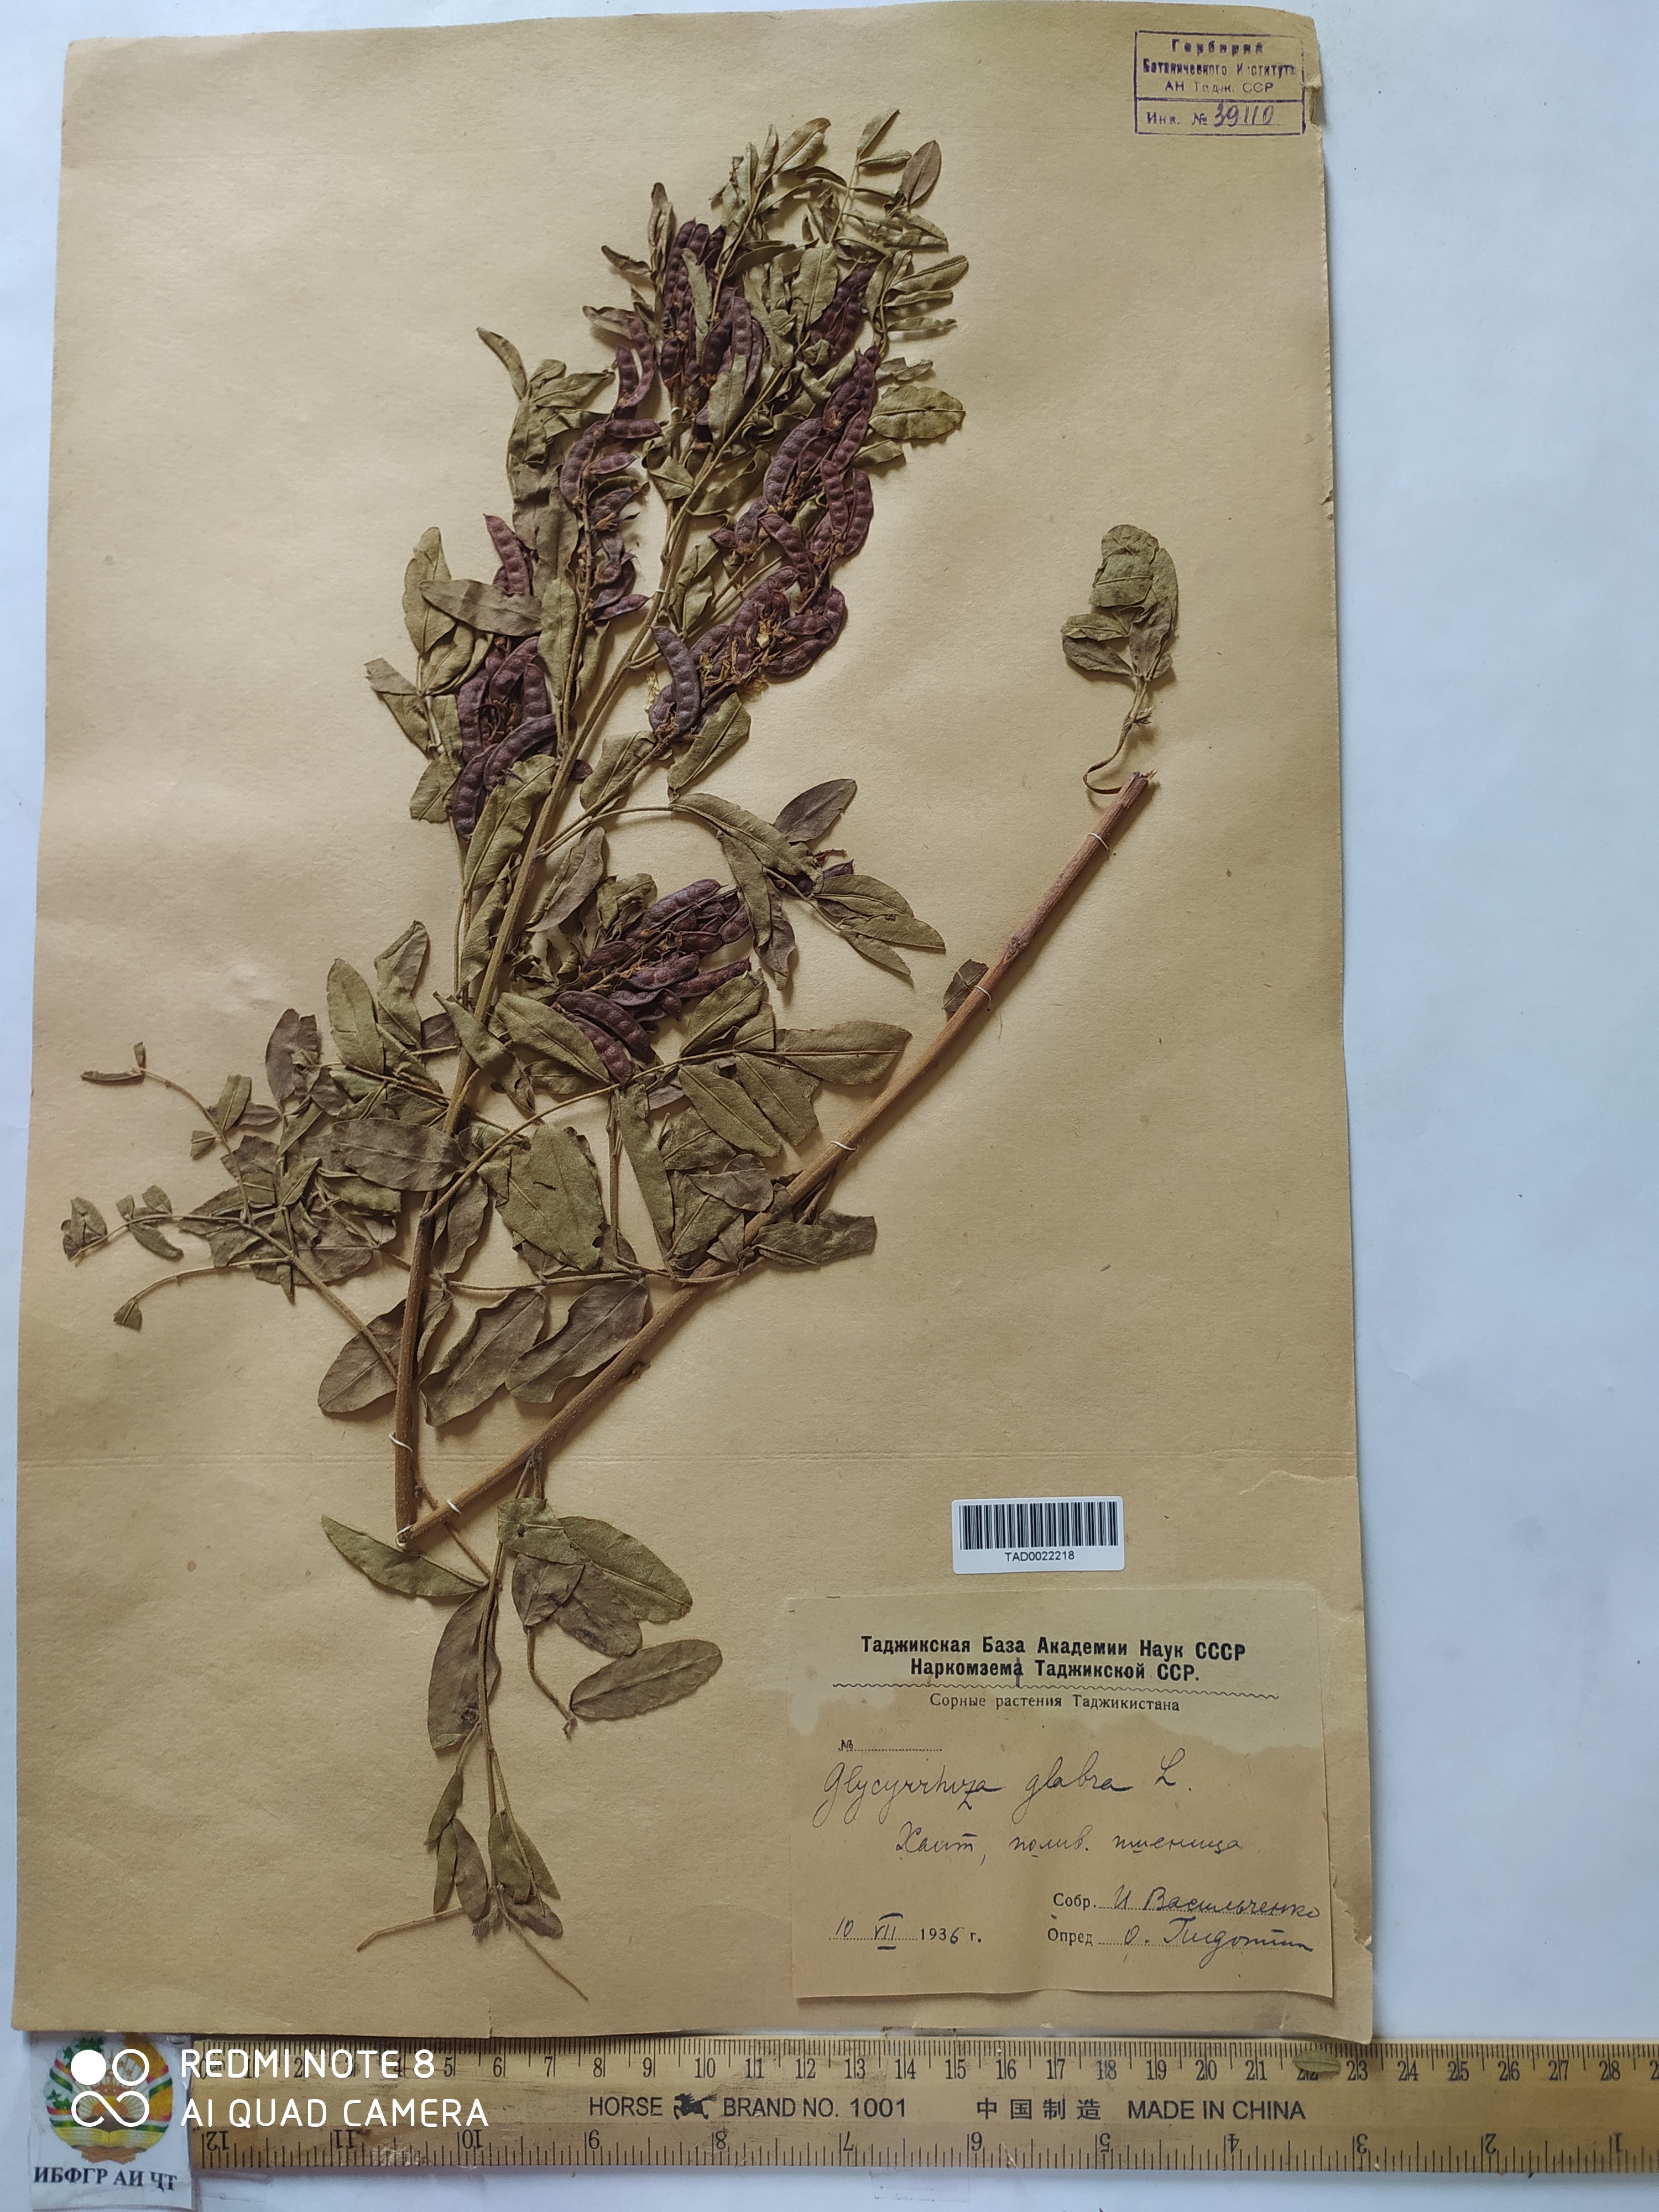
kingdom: Plantae
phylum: Tracheophyta
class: Magnoliopsida
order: Fabales
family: Fabaceae
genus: Glycyrrhiza
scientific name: Glycyrrhiza glabra
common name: Liquorice
